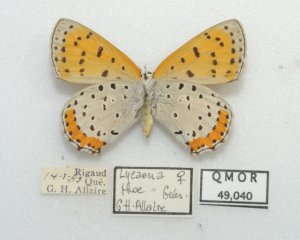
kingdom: Animalia
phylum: Arthropoda
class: Insecta
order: Lepidoptera
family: Sesiidae
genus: Sesia
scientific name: Sesia Lycaena hyllus
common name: Bronze Copper
